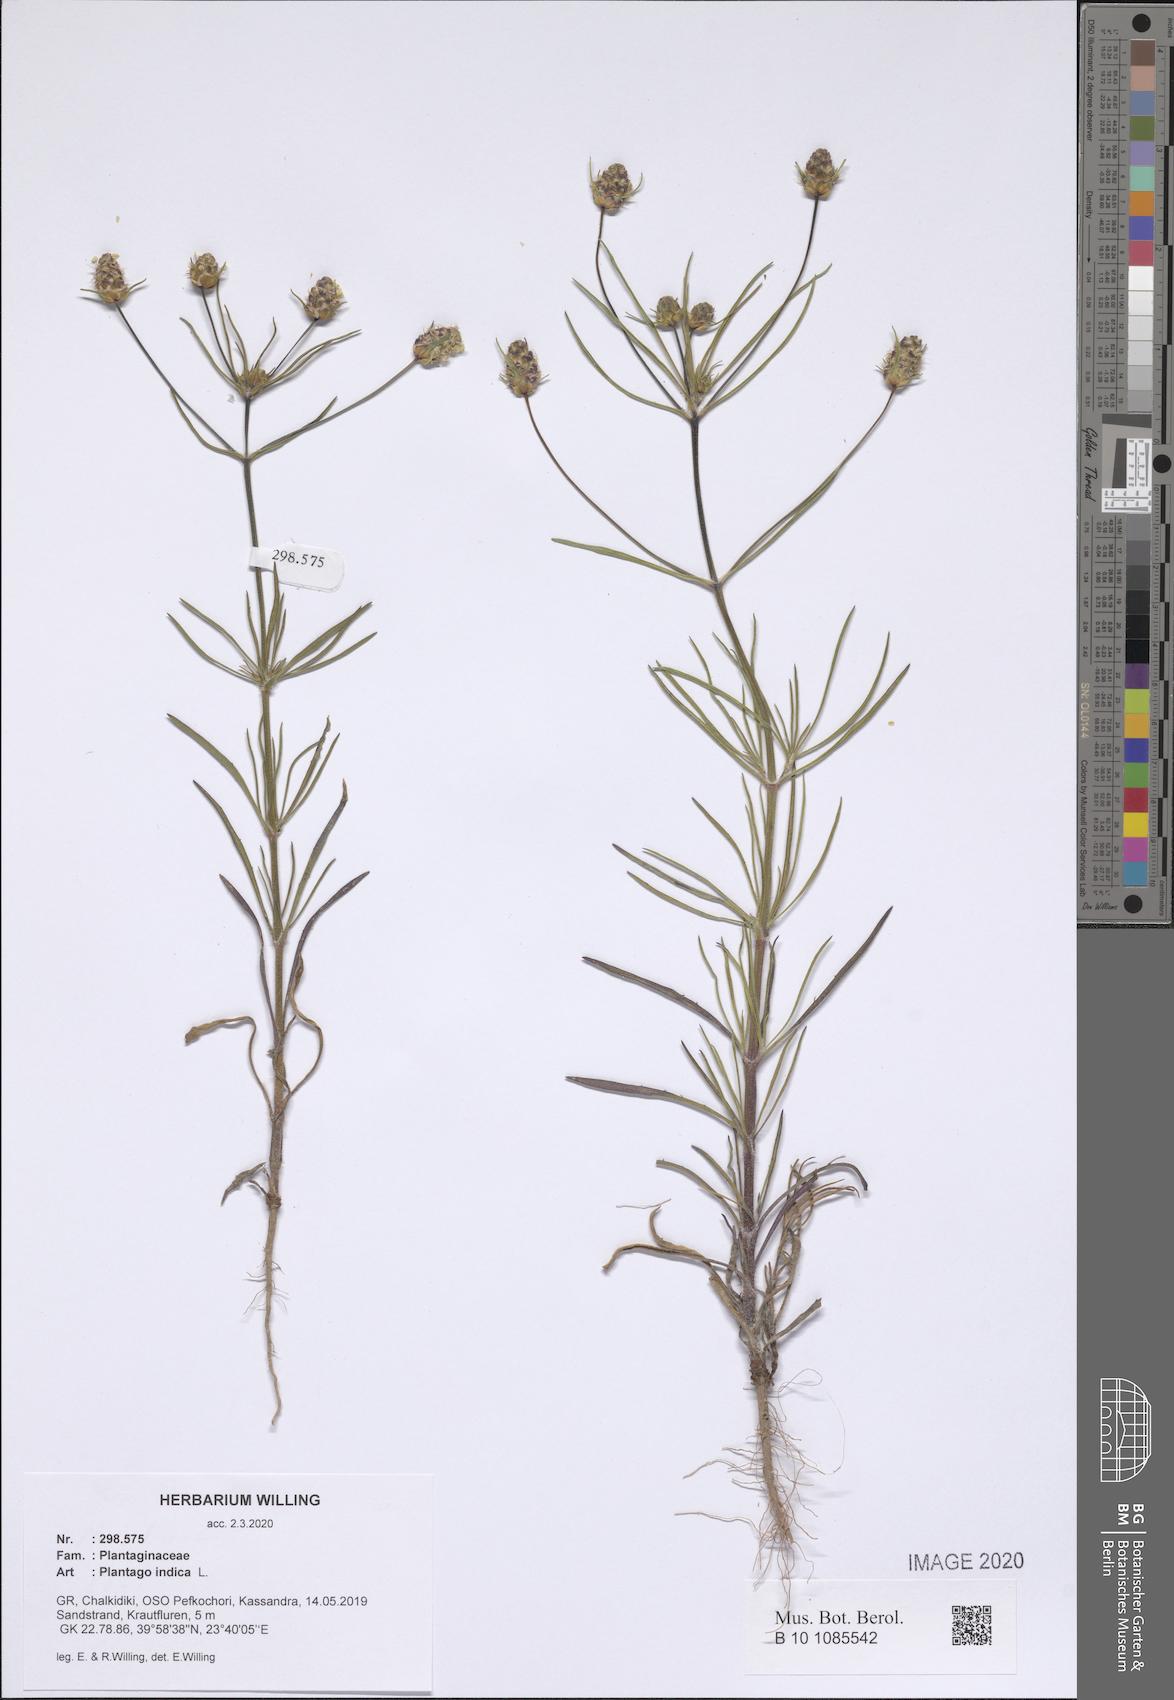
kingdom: Plantae
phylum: Tracheophyta
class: Magnoliopsida
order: Lamiales
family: Plantaginaceae
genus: Plantago
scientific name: Plantago arenaria
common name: Branched plantain
